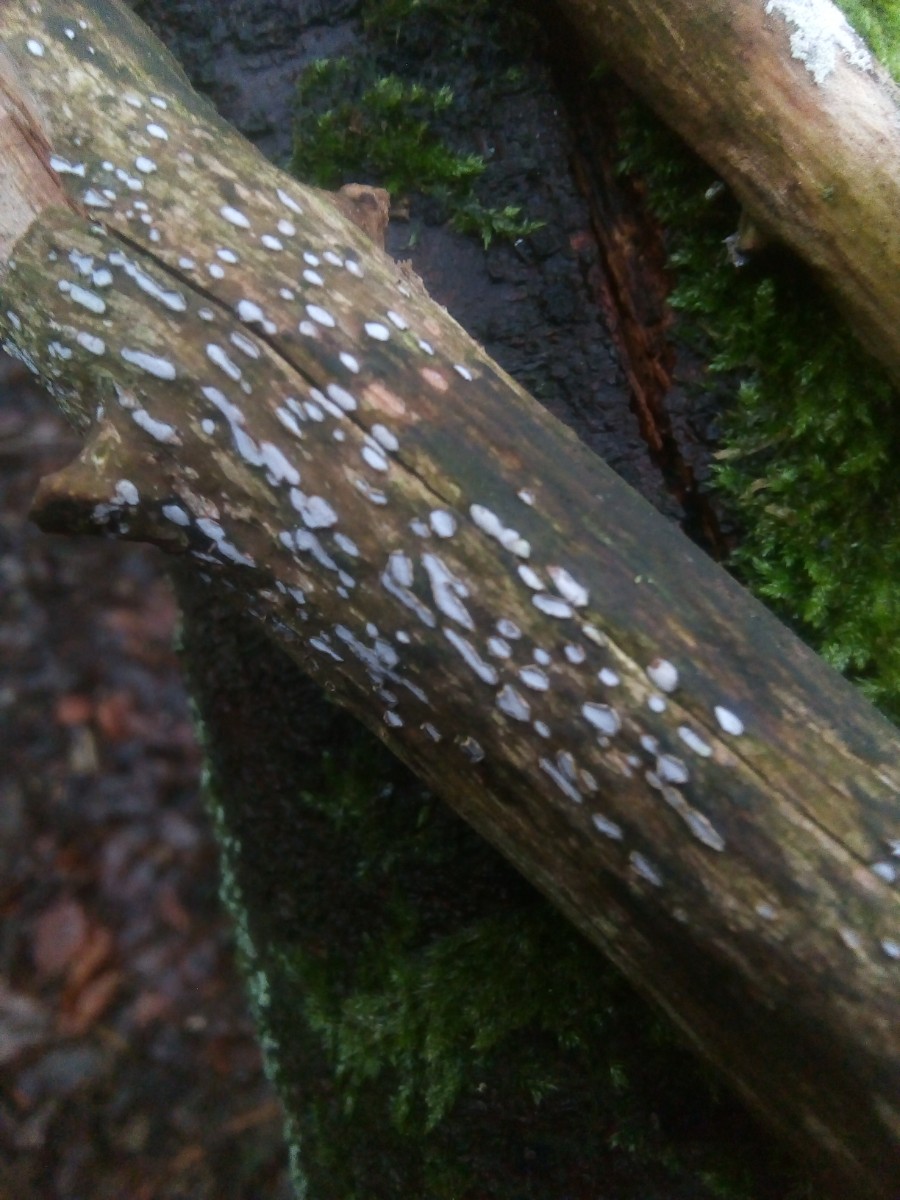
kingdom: Fungi
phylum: Ascomycota
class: Leotiomycetes
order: Chaetomellales
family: Marthamycetaceae
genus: Propolis
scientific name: Propolis farinosa
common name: almindelig vedsprængerskive
